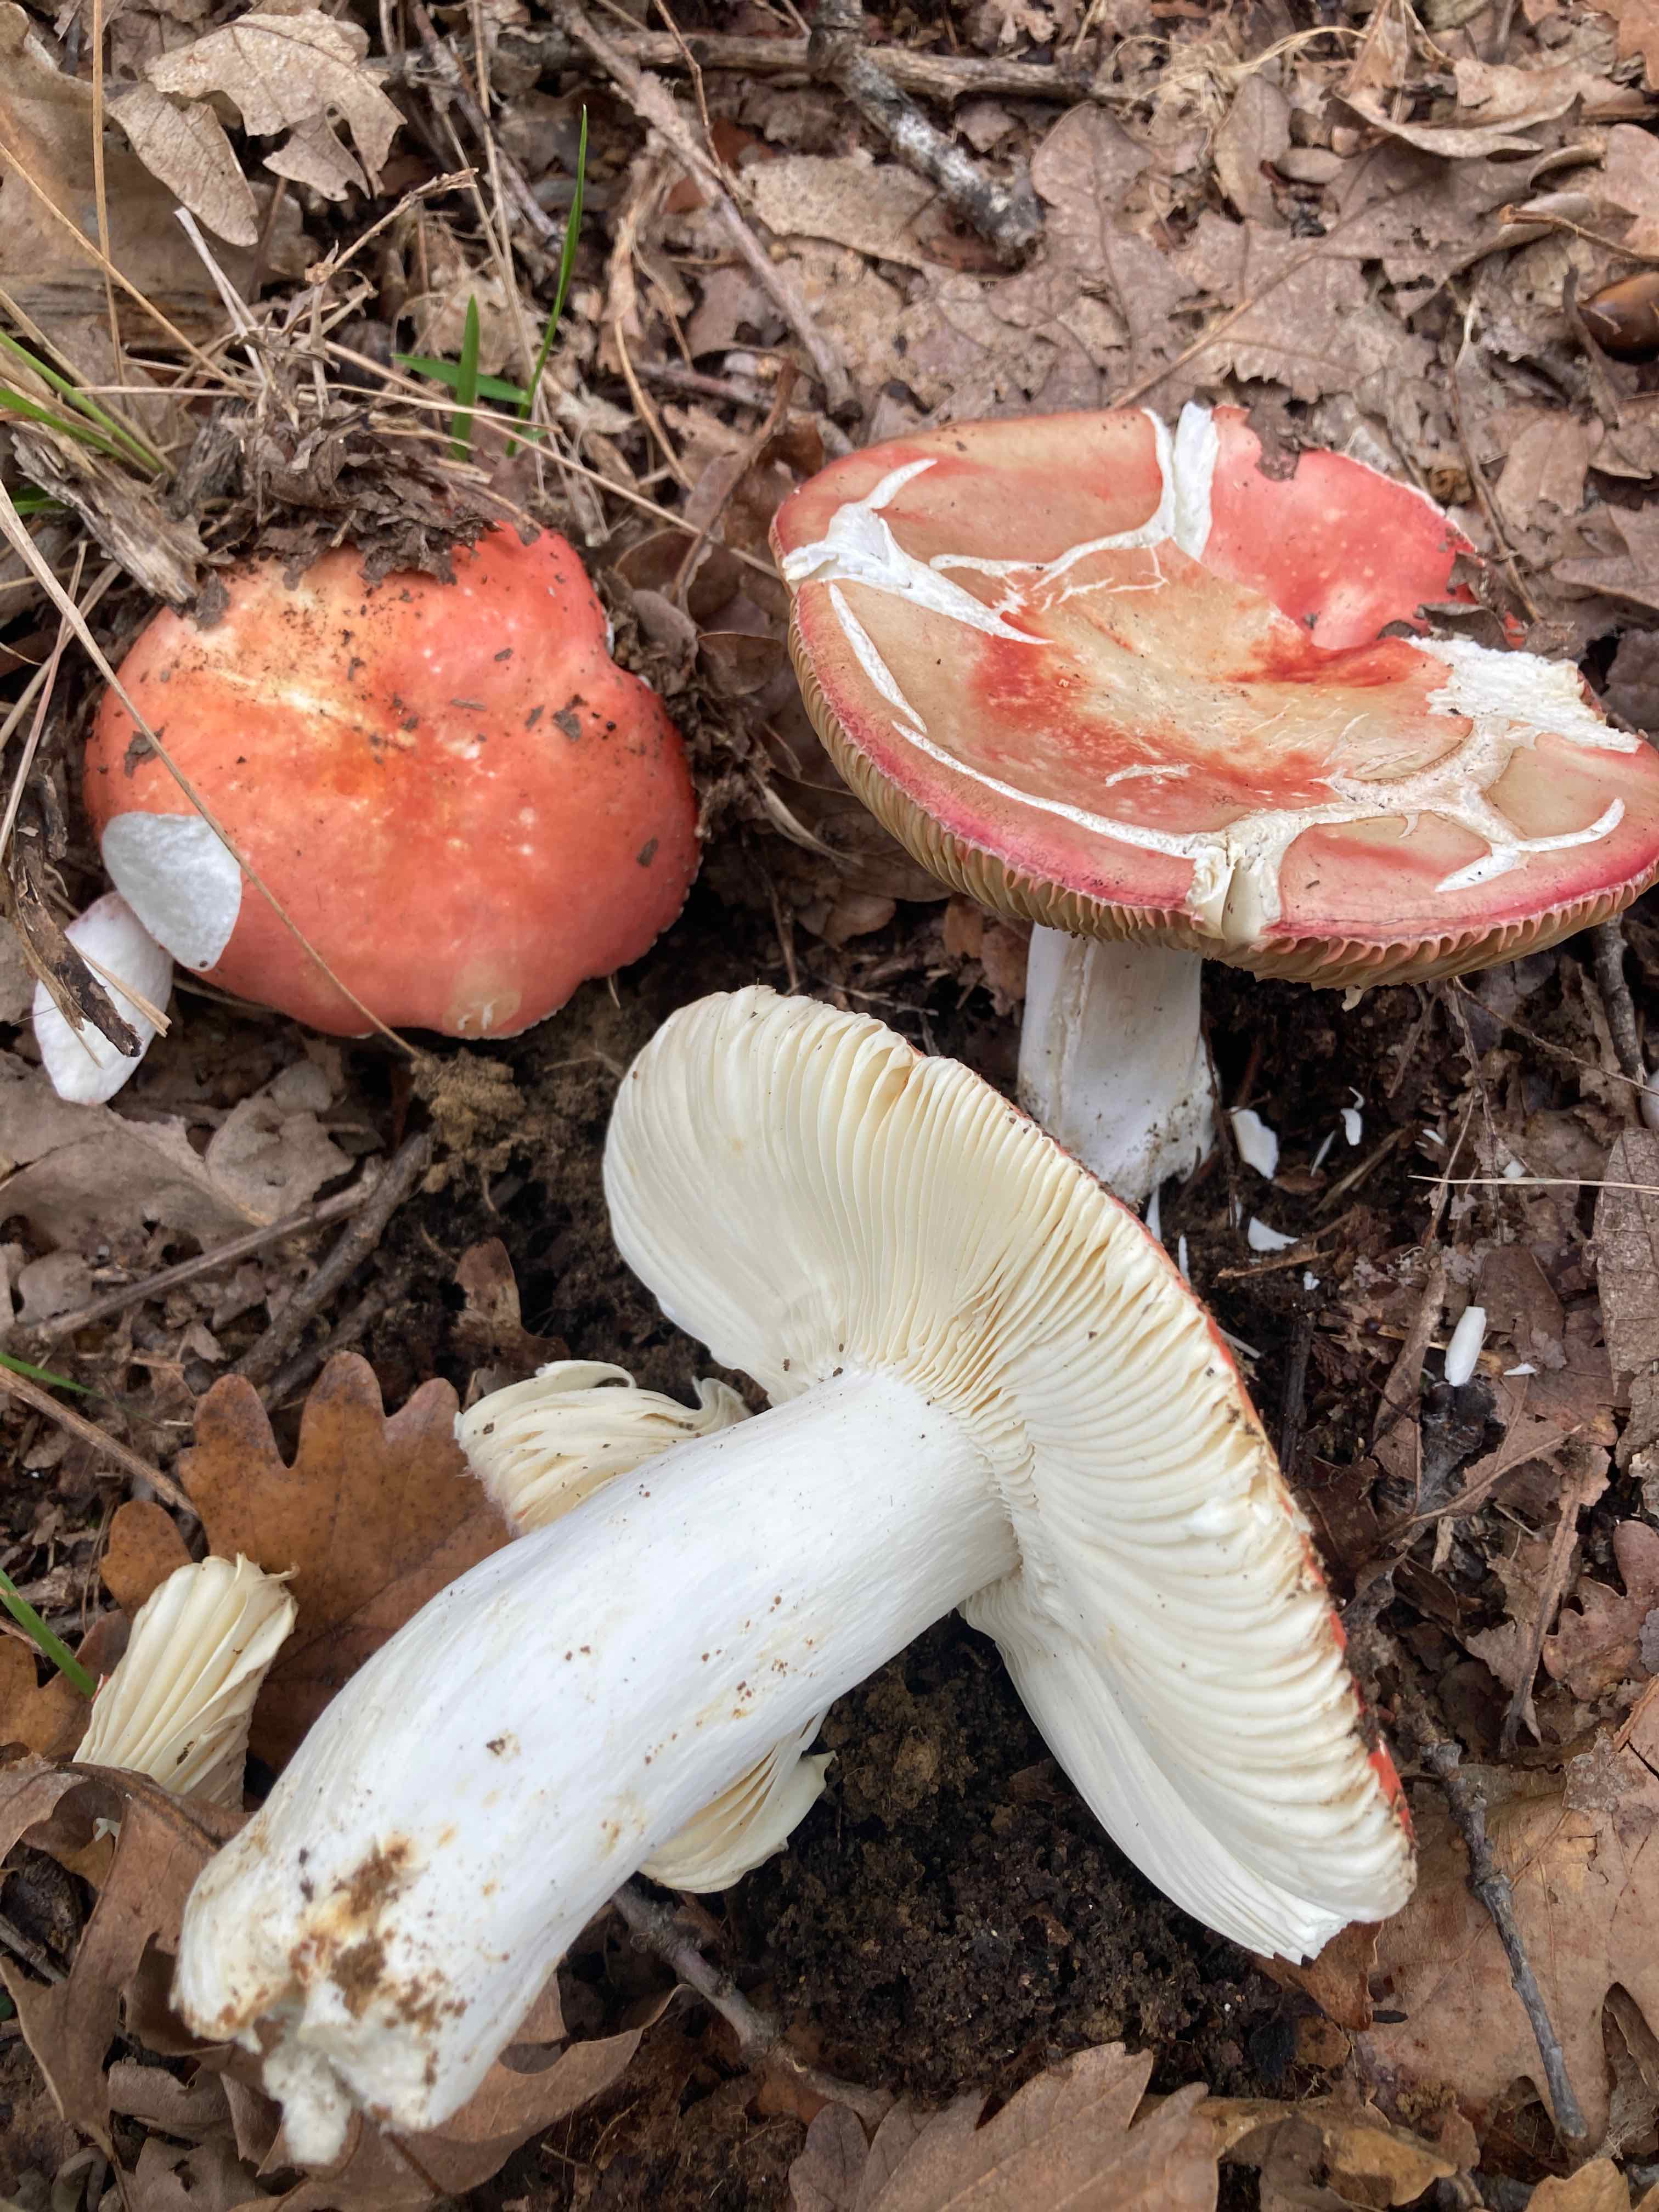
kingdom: Fungi
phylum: Basidiomycota
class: Agaricomycetes
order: Russulales
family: Russulaceae
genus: Russula
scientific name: Russula
